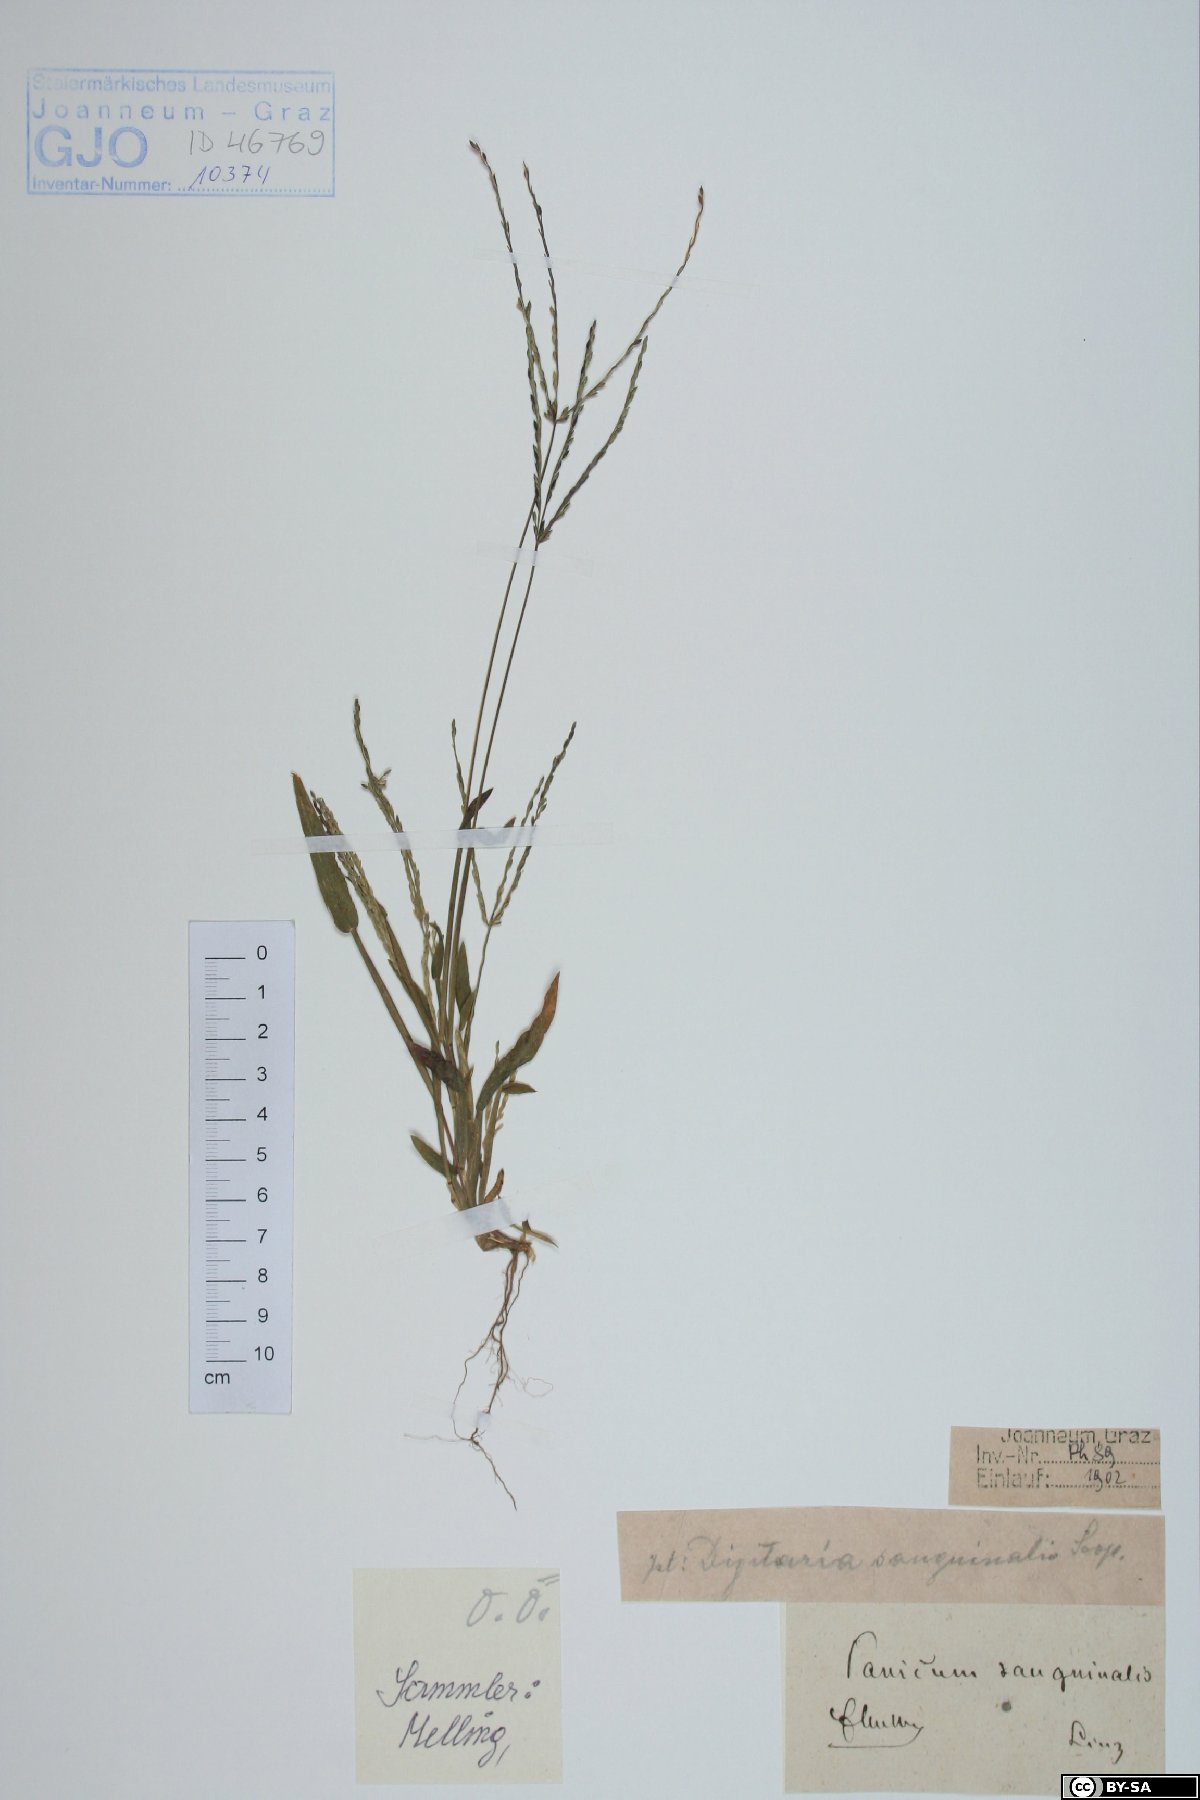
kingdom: Plantae
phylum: Tracheophyta
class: Liliopsida
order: Poales
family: Poaceae
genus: Digitaria
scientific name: Digitaria sanguinalis
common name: Hairy crabgrass
